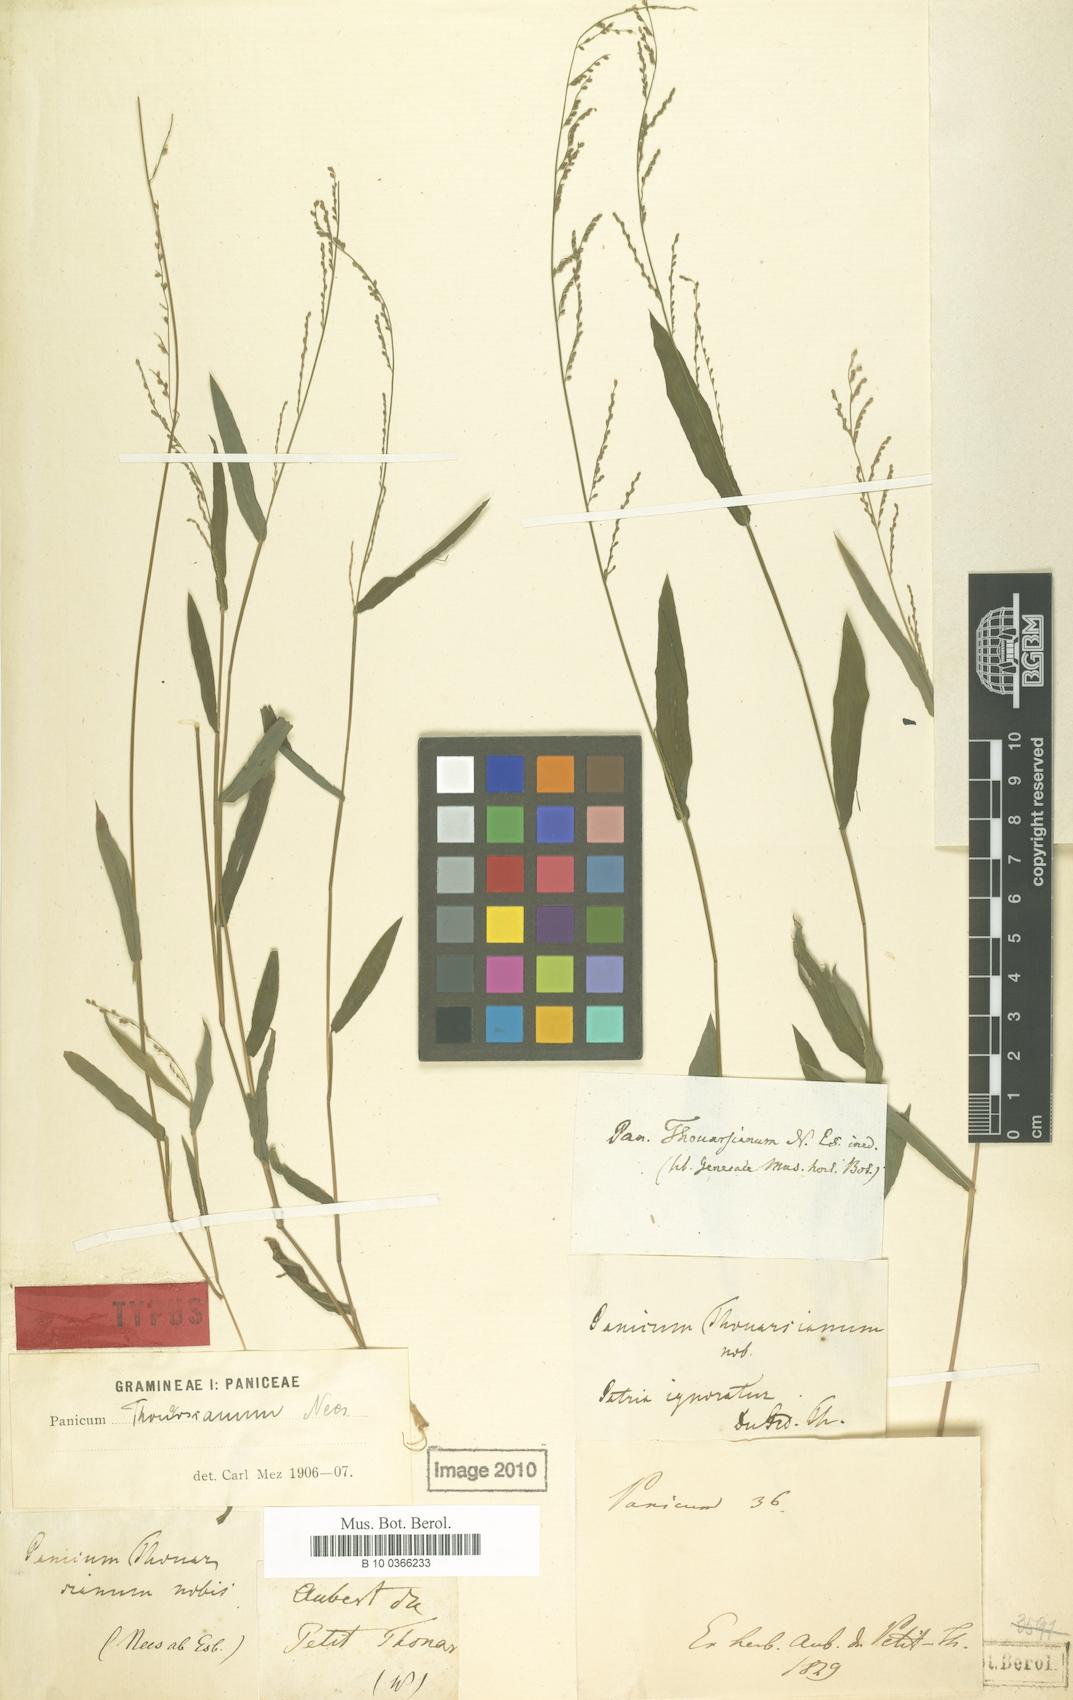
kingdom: Plantae
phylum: Tracheophyta
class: Liliopsida
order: Poales
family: Poaceae
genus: Urochloa
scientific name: Urochloa fusca
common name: Browntop signal grass
